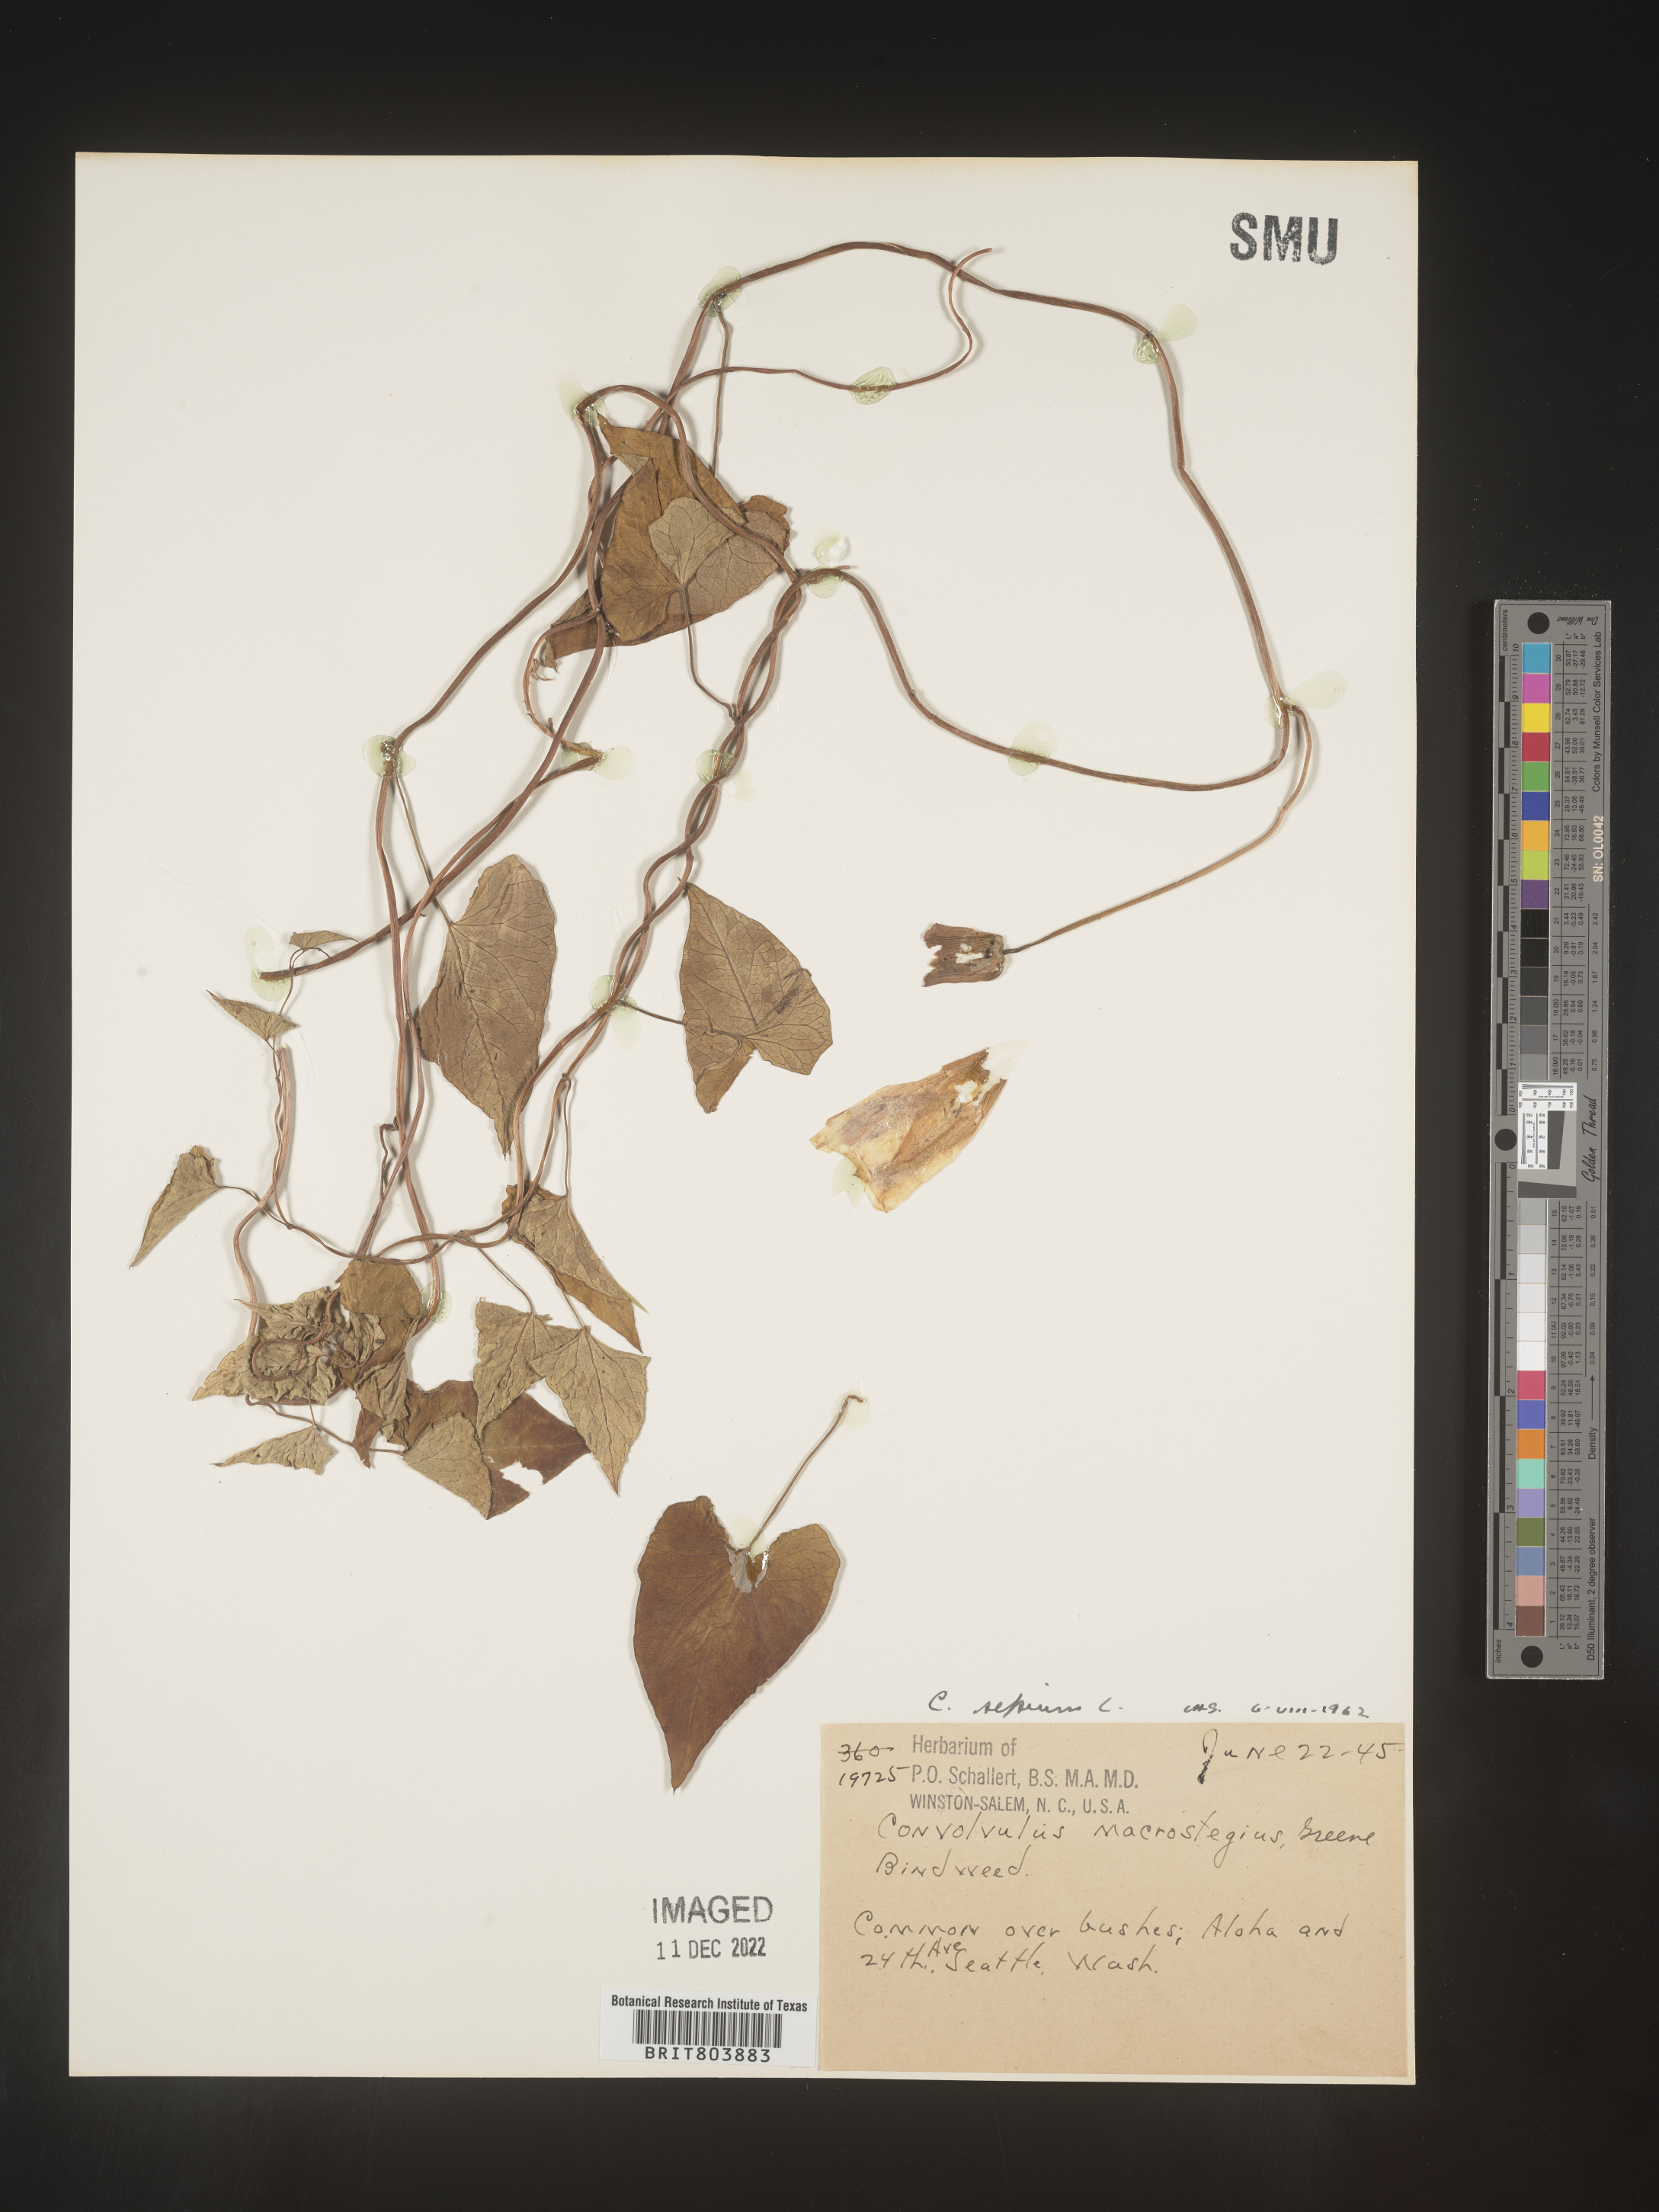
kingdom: Plantae
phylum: Tracheophyta
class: Magnoliopsida
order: Solanales
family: Convolvulaceae
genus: Calystegia
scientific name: Calystegia sepium
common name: Hedge bindweed
